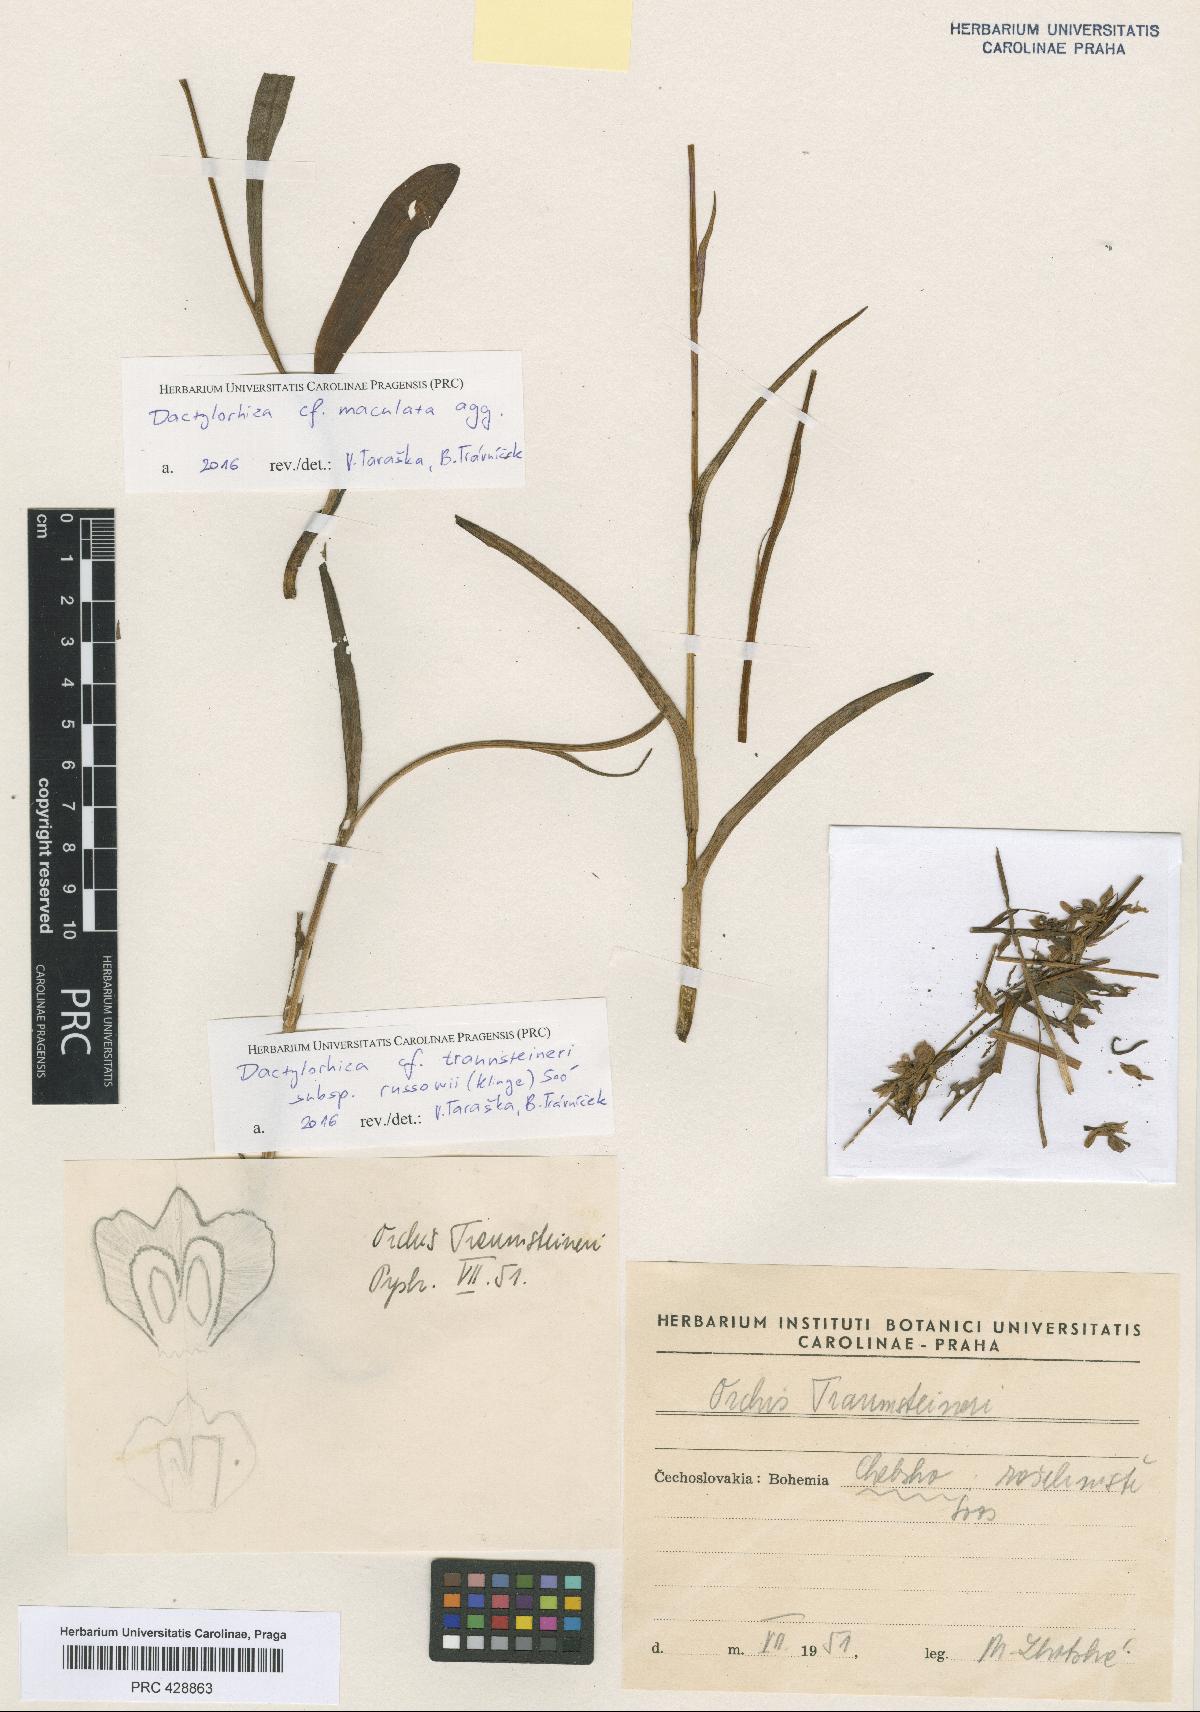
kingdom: Plantae
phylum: Tracheophyta
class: Liliopsida
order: Asparagales
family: Orchidaceae
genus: Dactylorhiza
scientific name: Dactylorhiza russowii
